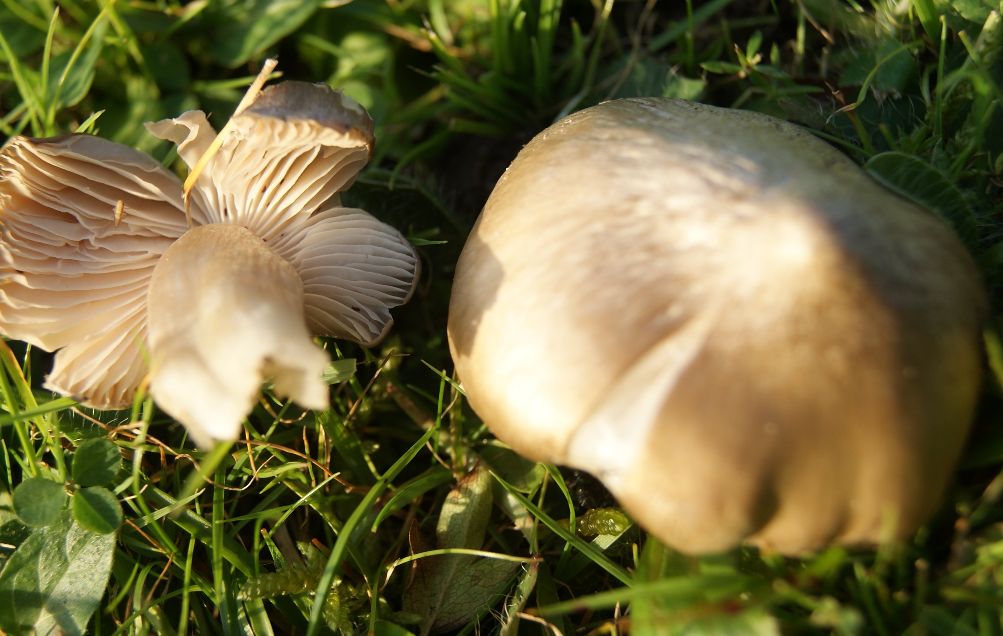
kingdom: Fungi
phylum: Basidiomycota
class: Agaricomycetes
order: Agaricales
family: Entolomataceae
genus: Entoloma
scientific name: Entoloma prunuloides
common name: mel-rødblad
